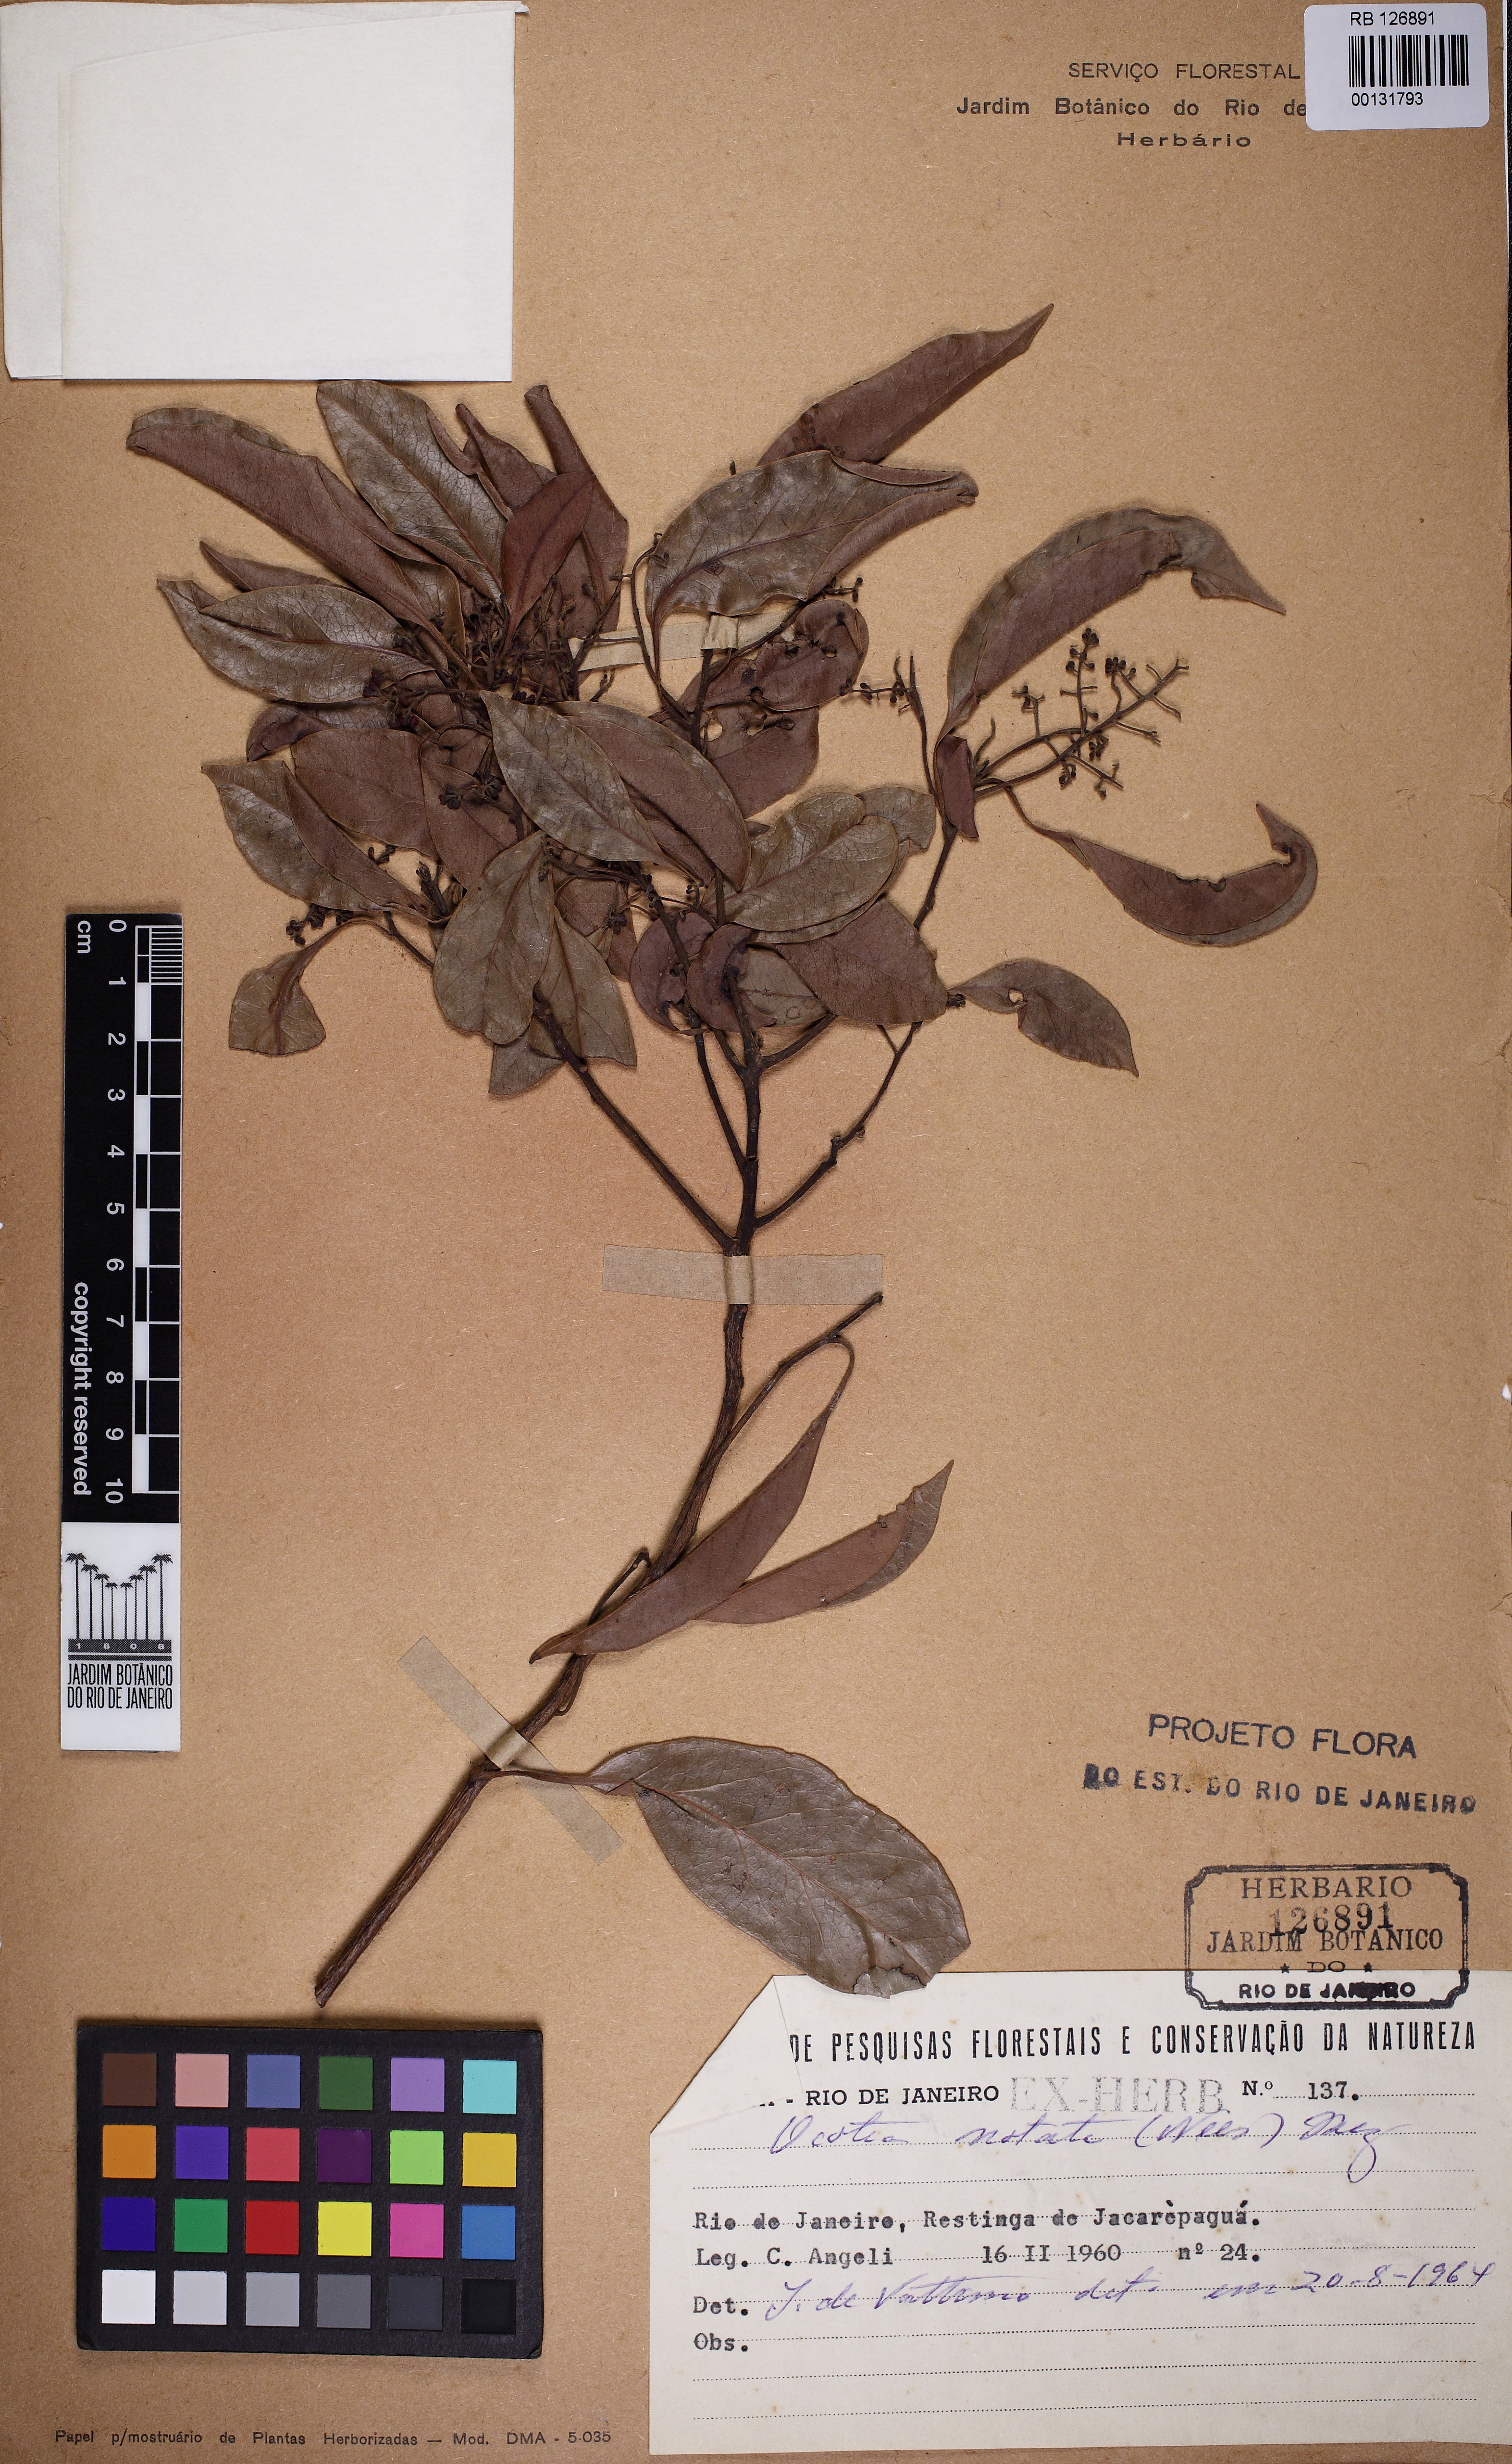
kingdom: Plantae
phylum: Tracheophyta
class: Magnoliopsida
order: Laurales
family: Lauraceae
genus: Mespilodaphne
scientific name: Mespilodaphne notata
